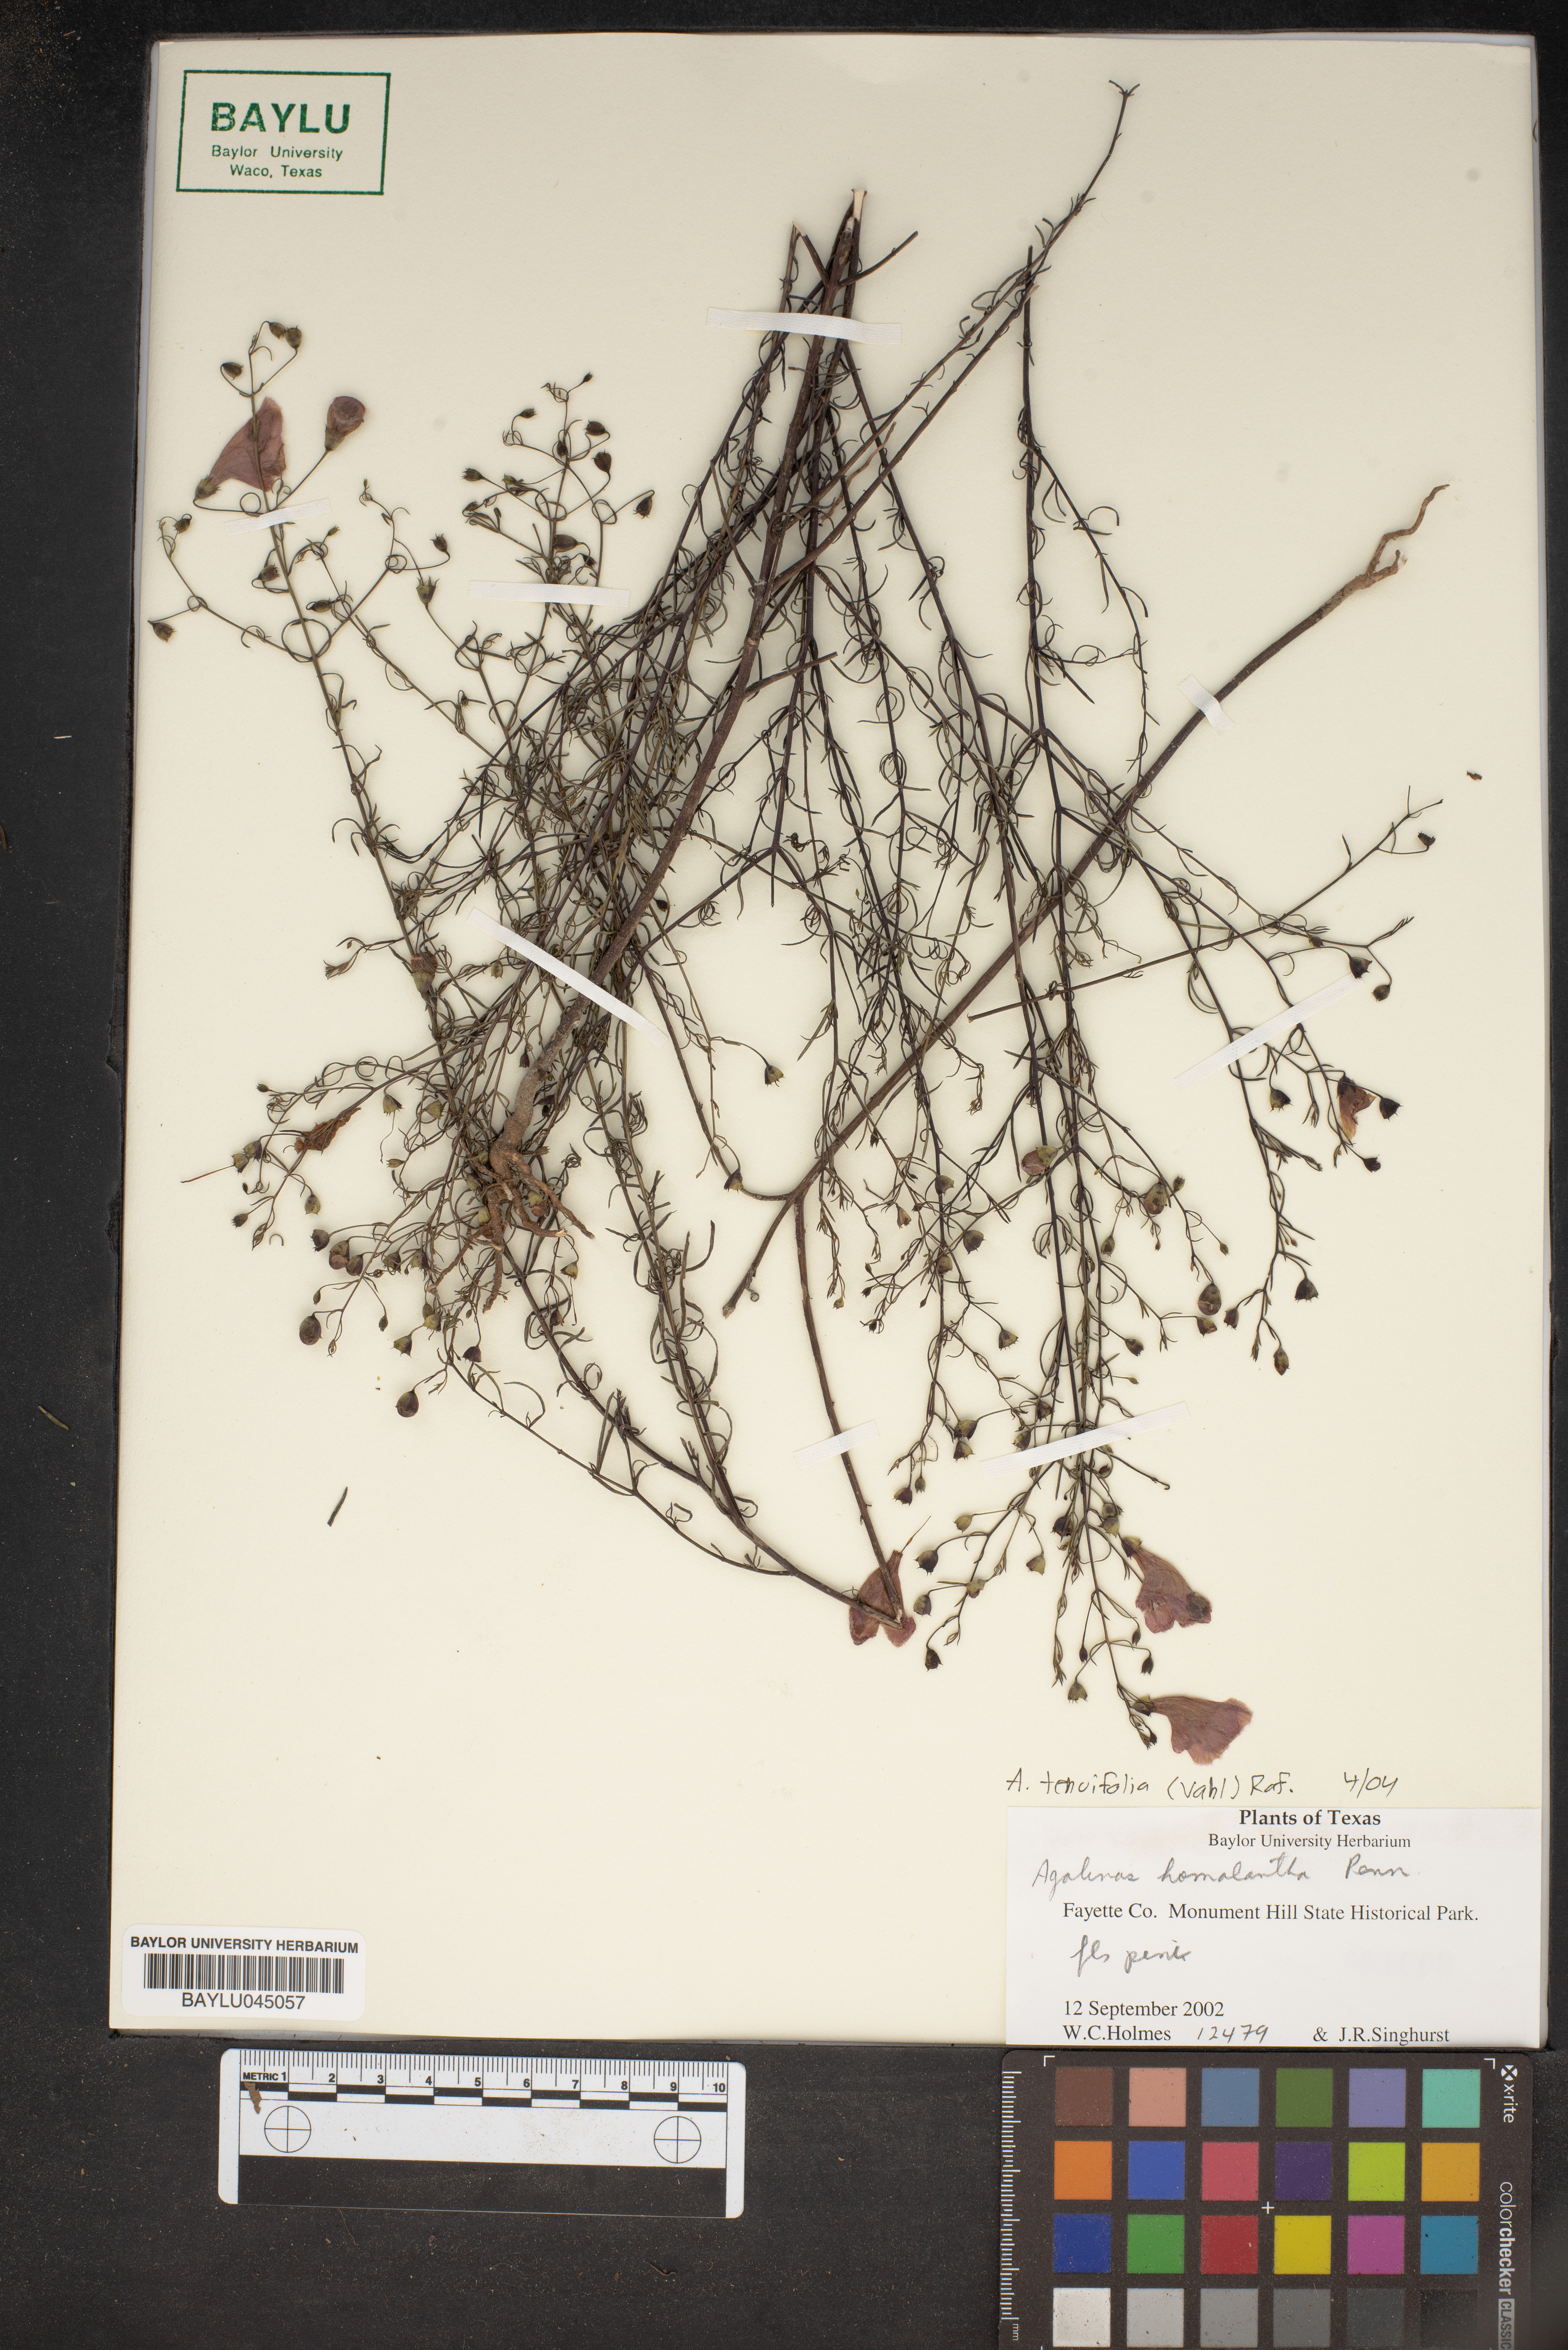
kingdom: Plantae
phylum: Tracheophyta
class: Magnoliopsida
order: Lamiales
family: Orobanchaceae
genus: Agalinis
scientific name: Agalinis homalantha
